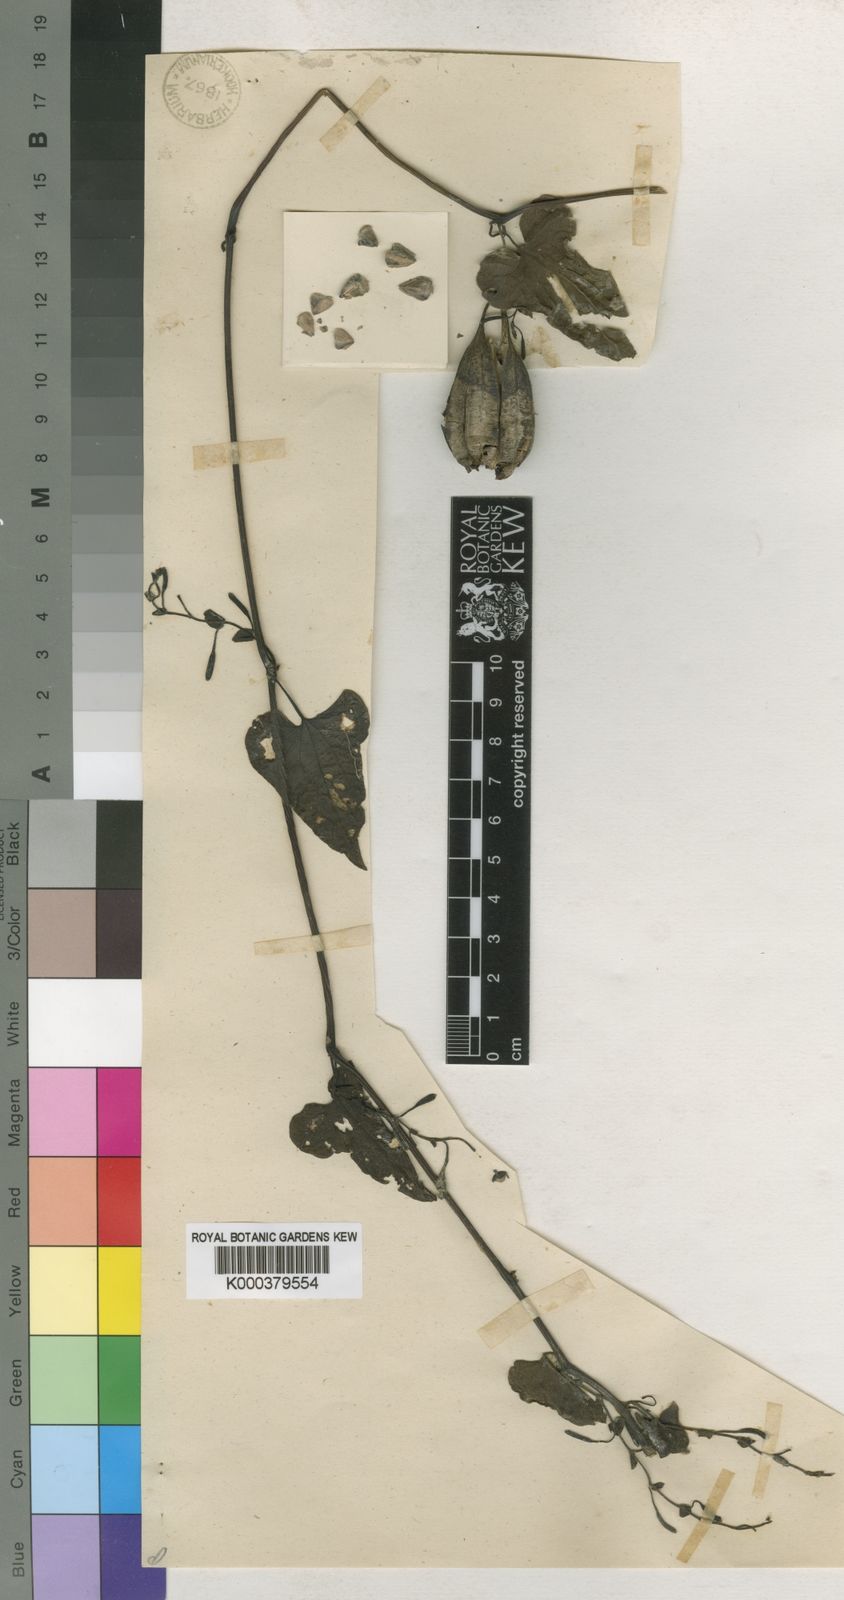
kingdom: Plantae
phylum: Tracheophyta
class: Magnoliopsida
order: Piperales
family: Aristolochiaceae
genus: Aristolochia
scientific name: Aristolochia albida
